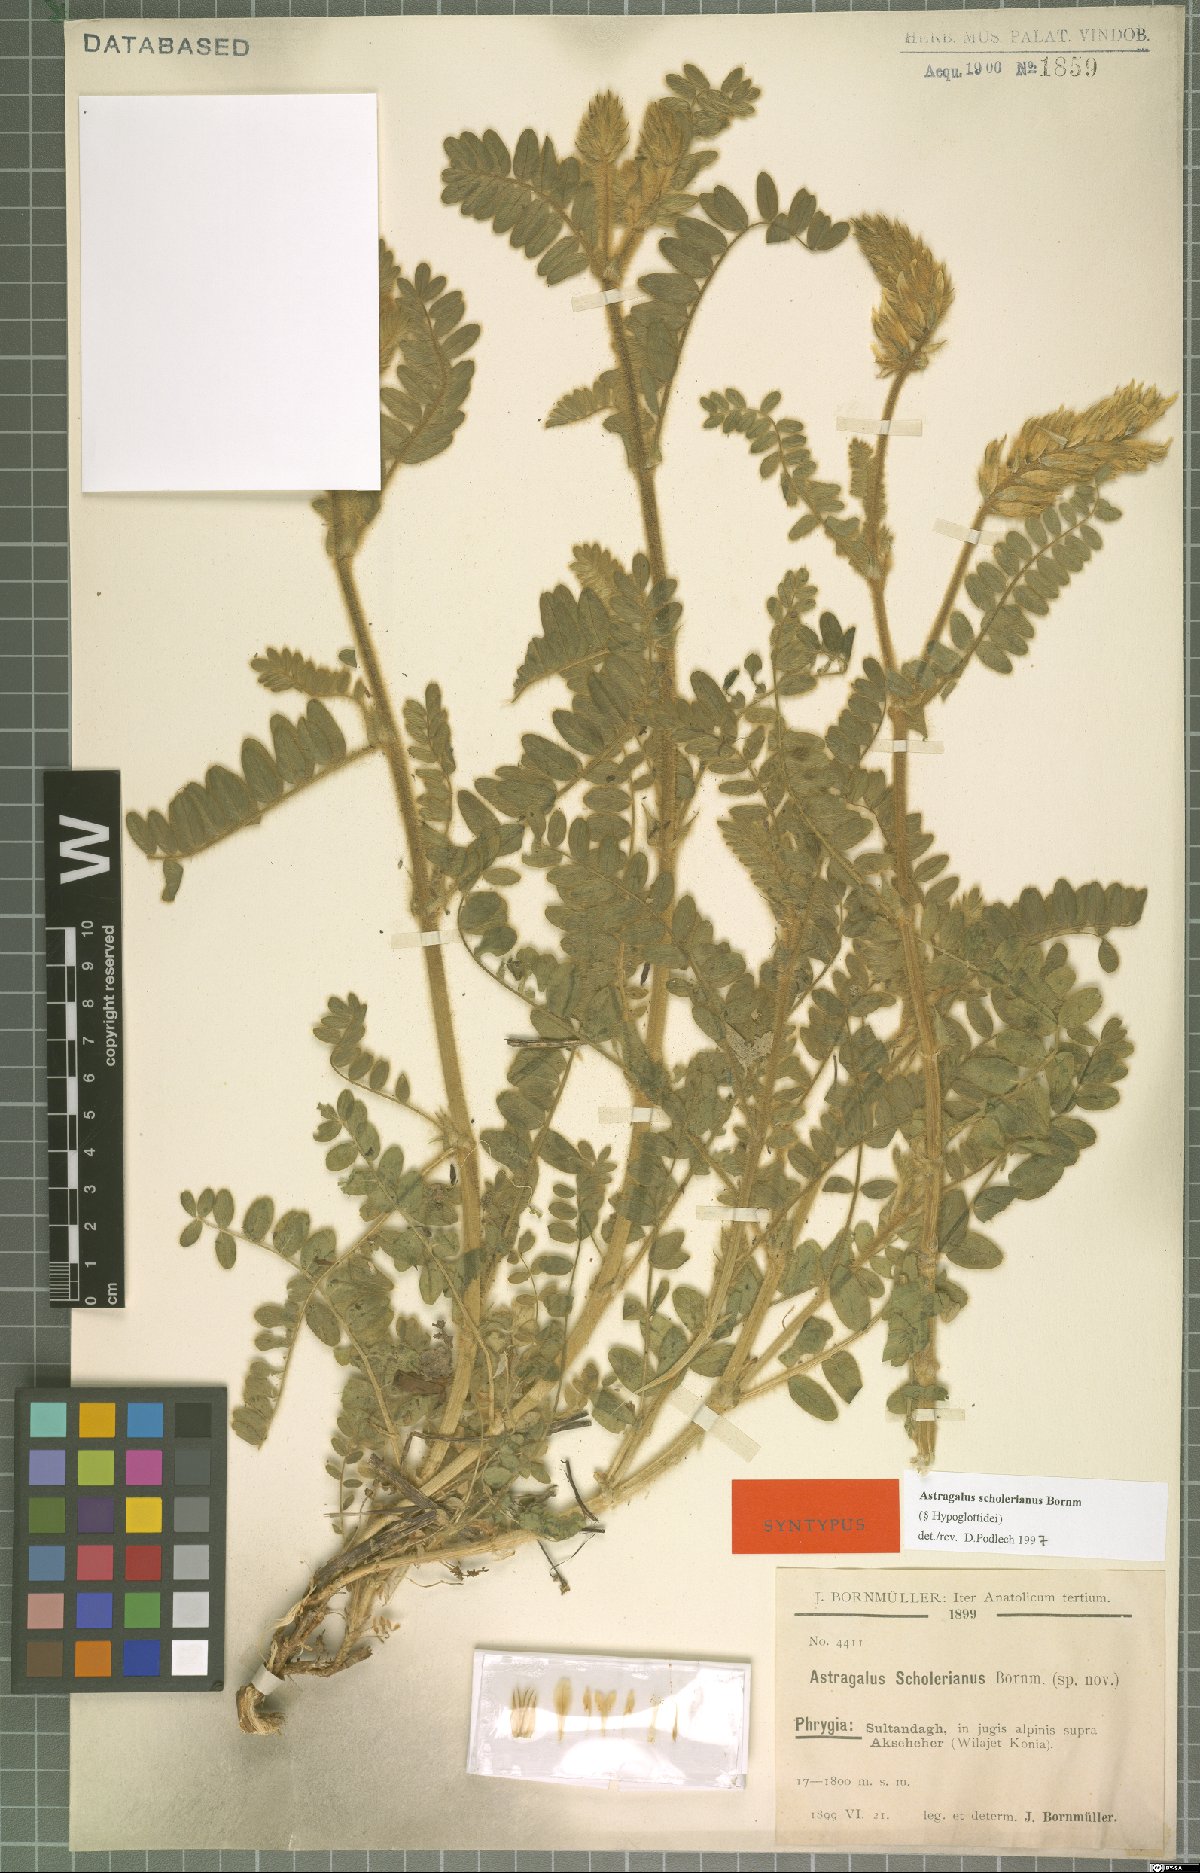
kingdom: Plantae
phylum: Tracheophyta
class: Magnoliopsida
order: Fabales
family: Fabaceae
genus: Astragalus
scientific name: Astragalus scholerianus
